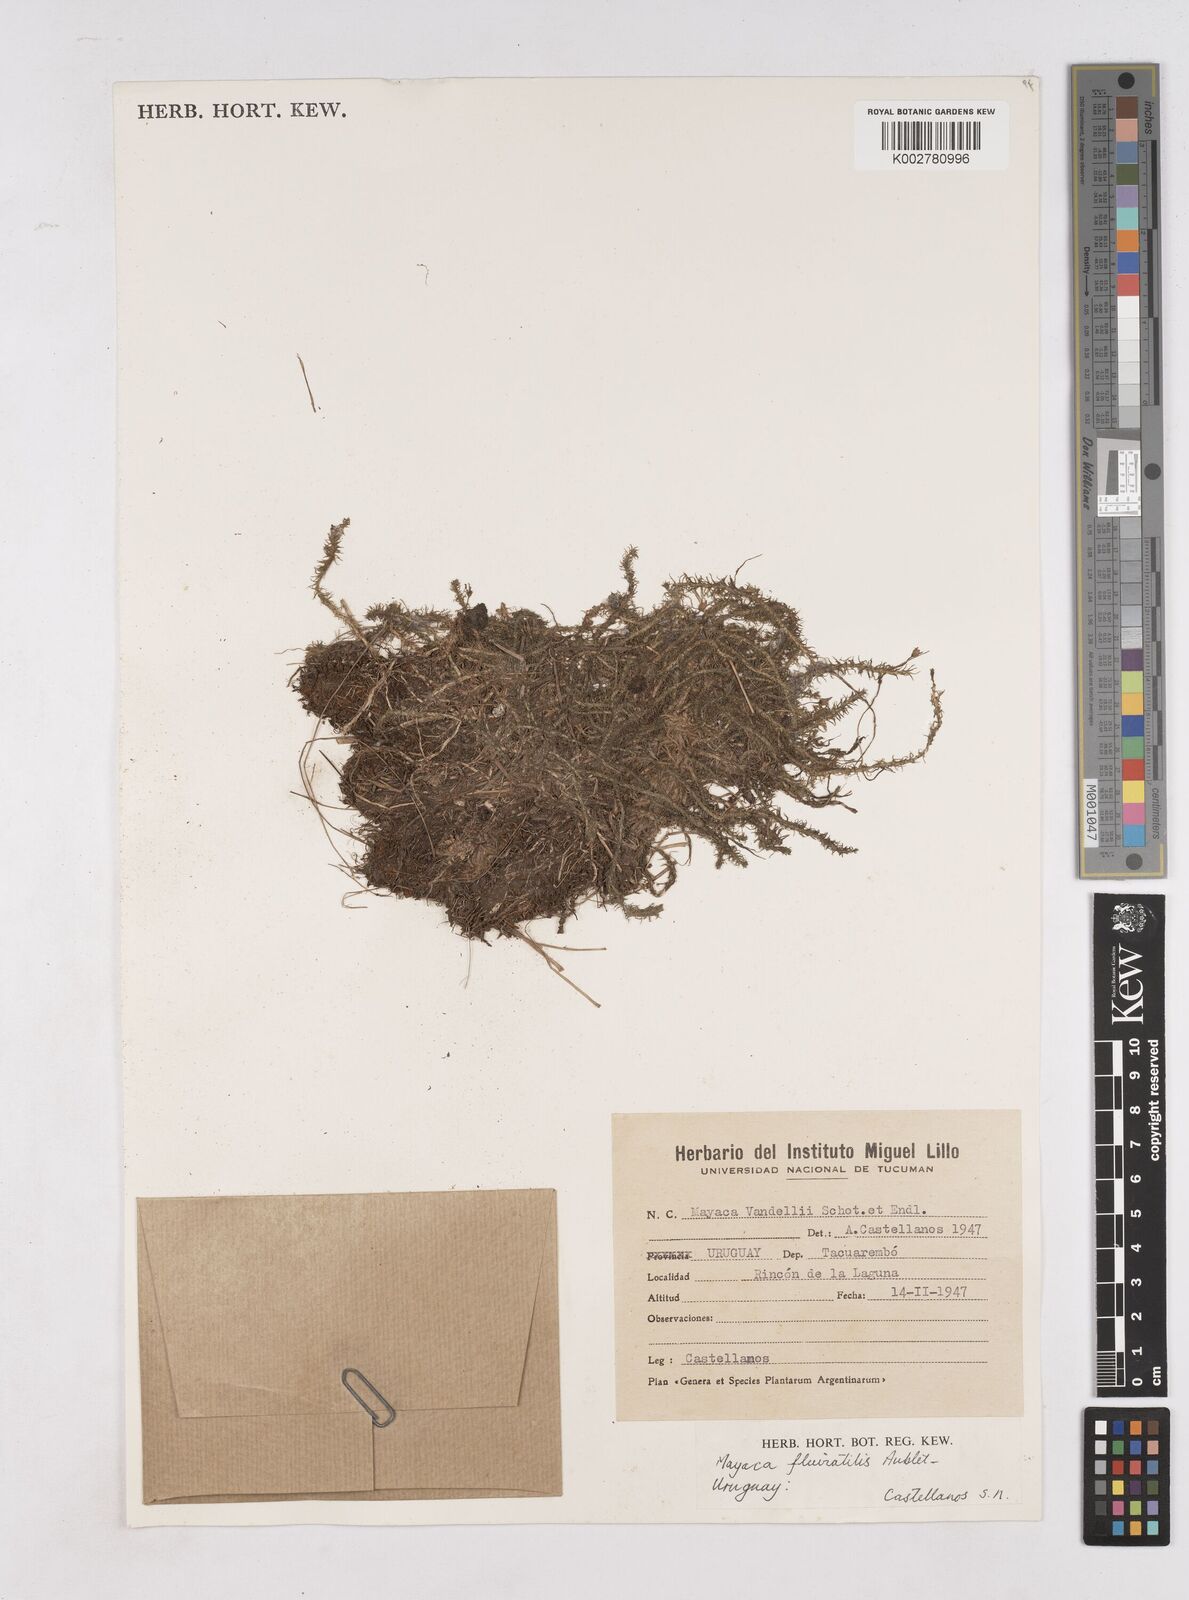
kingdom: Plantae
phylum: Tracheophyta
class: Liliopsida
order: Poales
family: Mayacaceae
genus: Mayaca
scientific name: Mayaca fluviatilis
